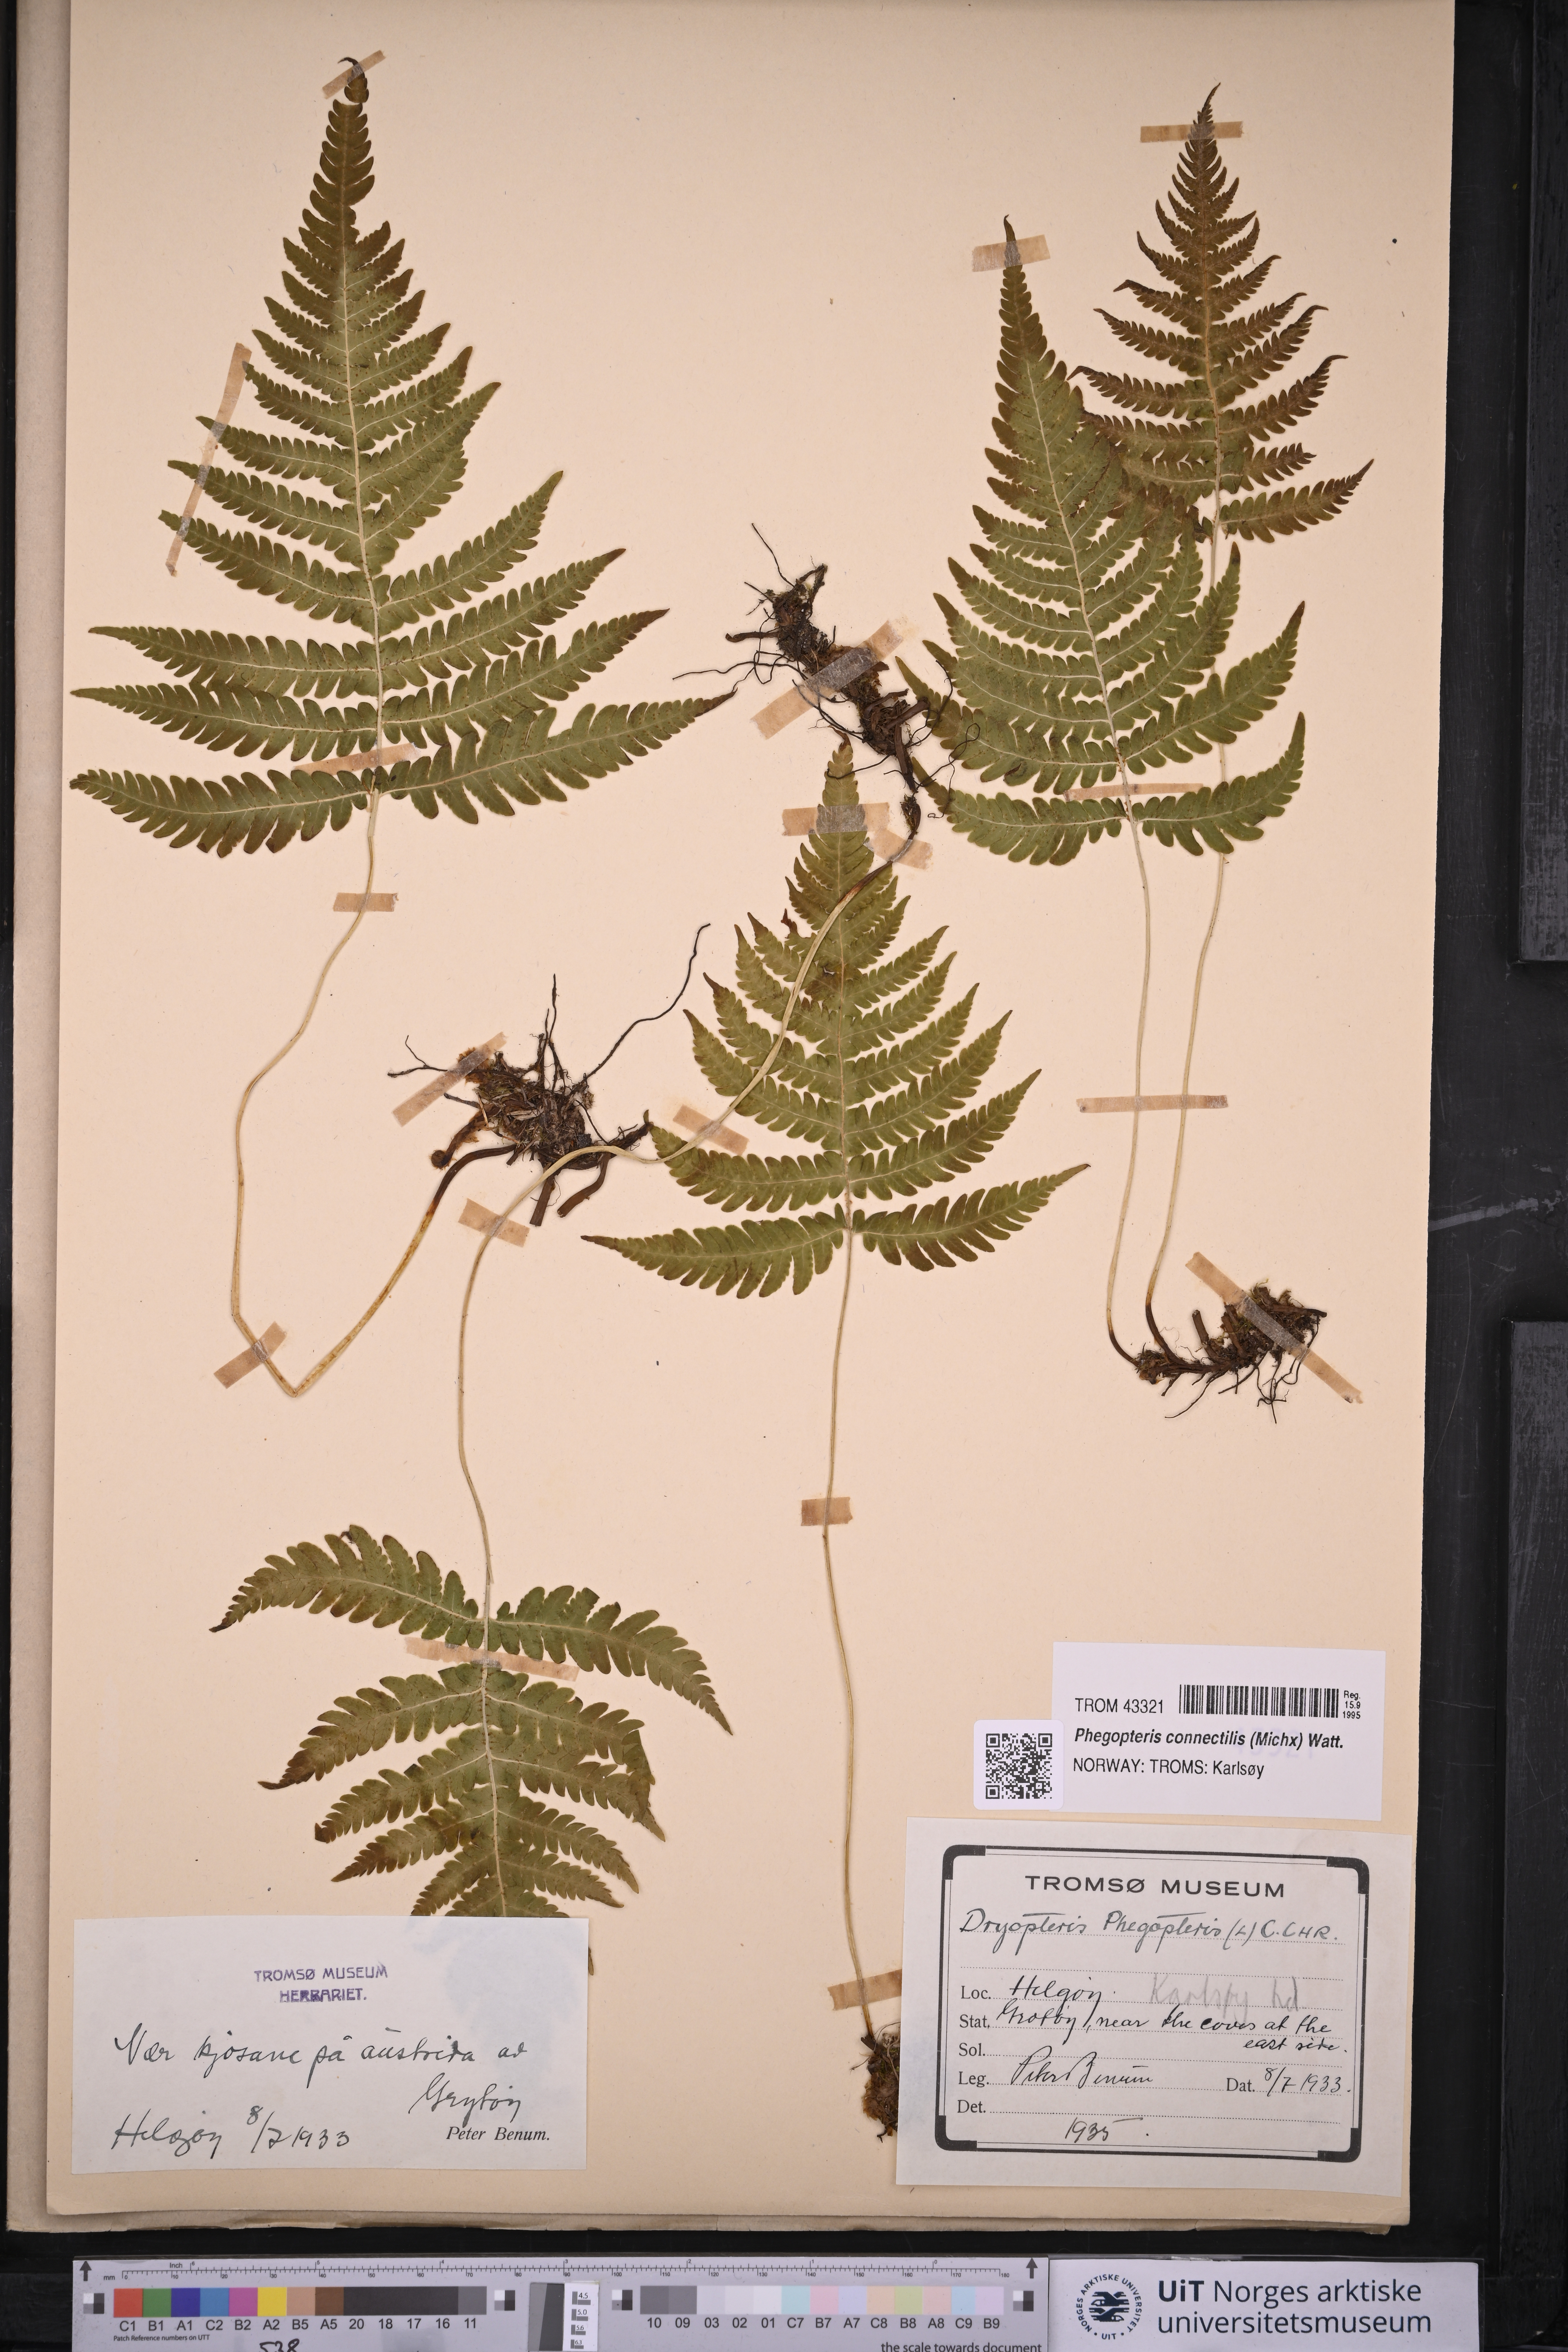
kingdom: Plantae
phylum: Tracheophyta
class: Polypodiopsida
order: Polypodiales
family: Thelypteridaceae
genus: Phegopteris
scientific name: Phegopteris connectilis
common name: Beech fern
